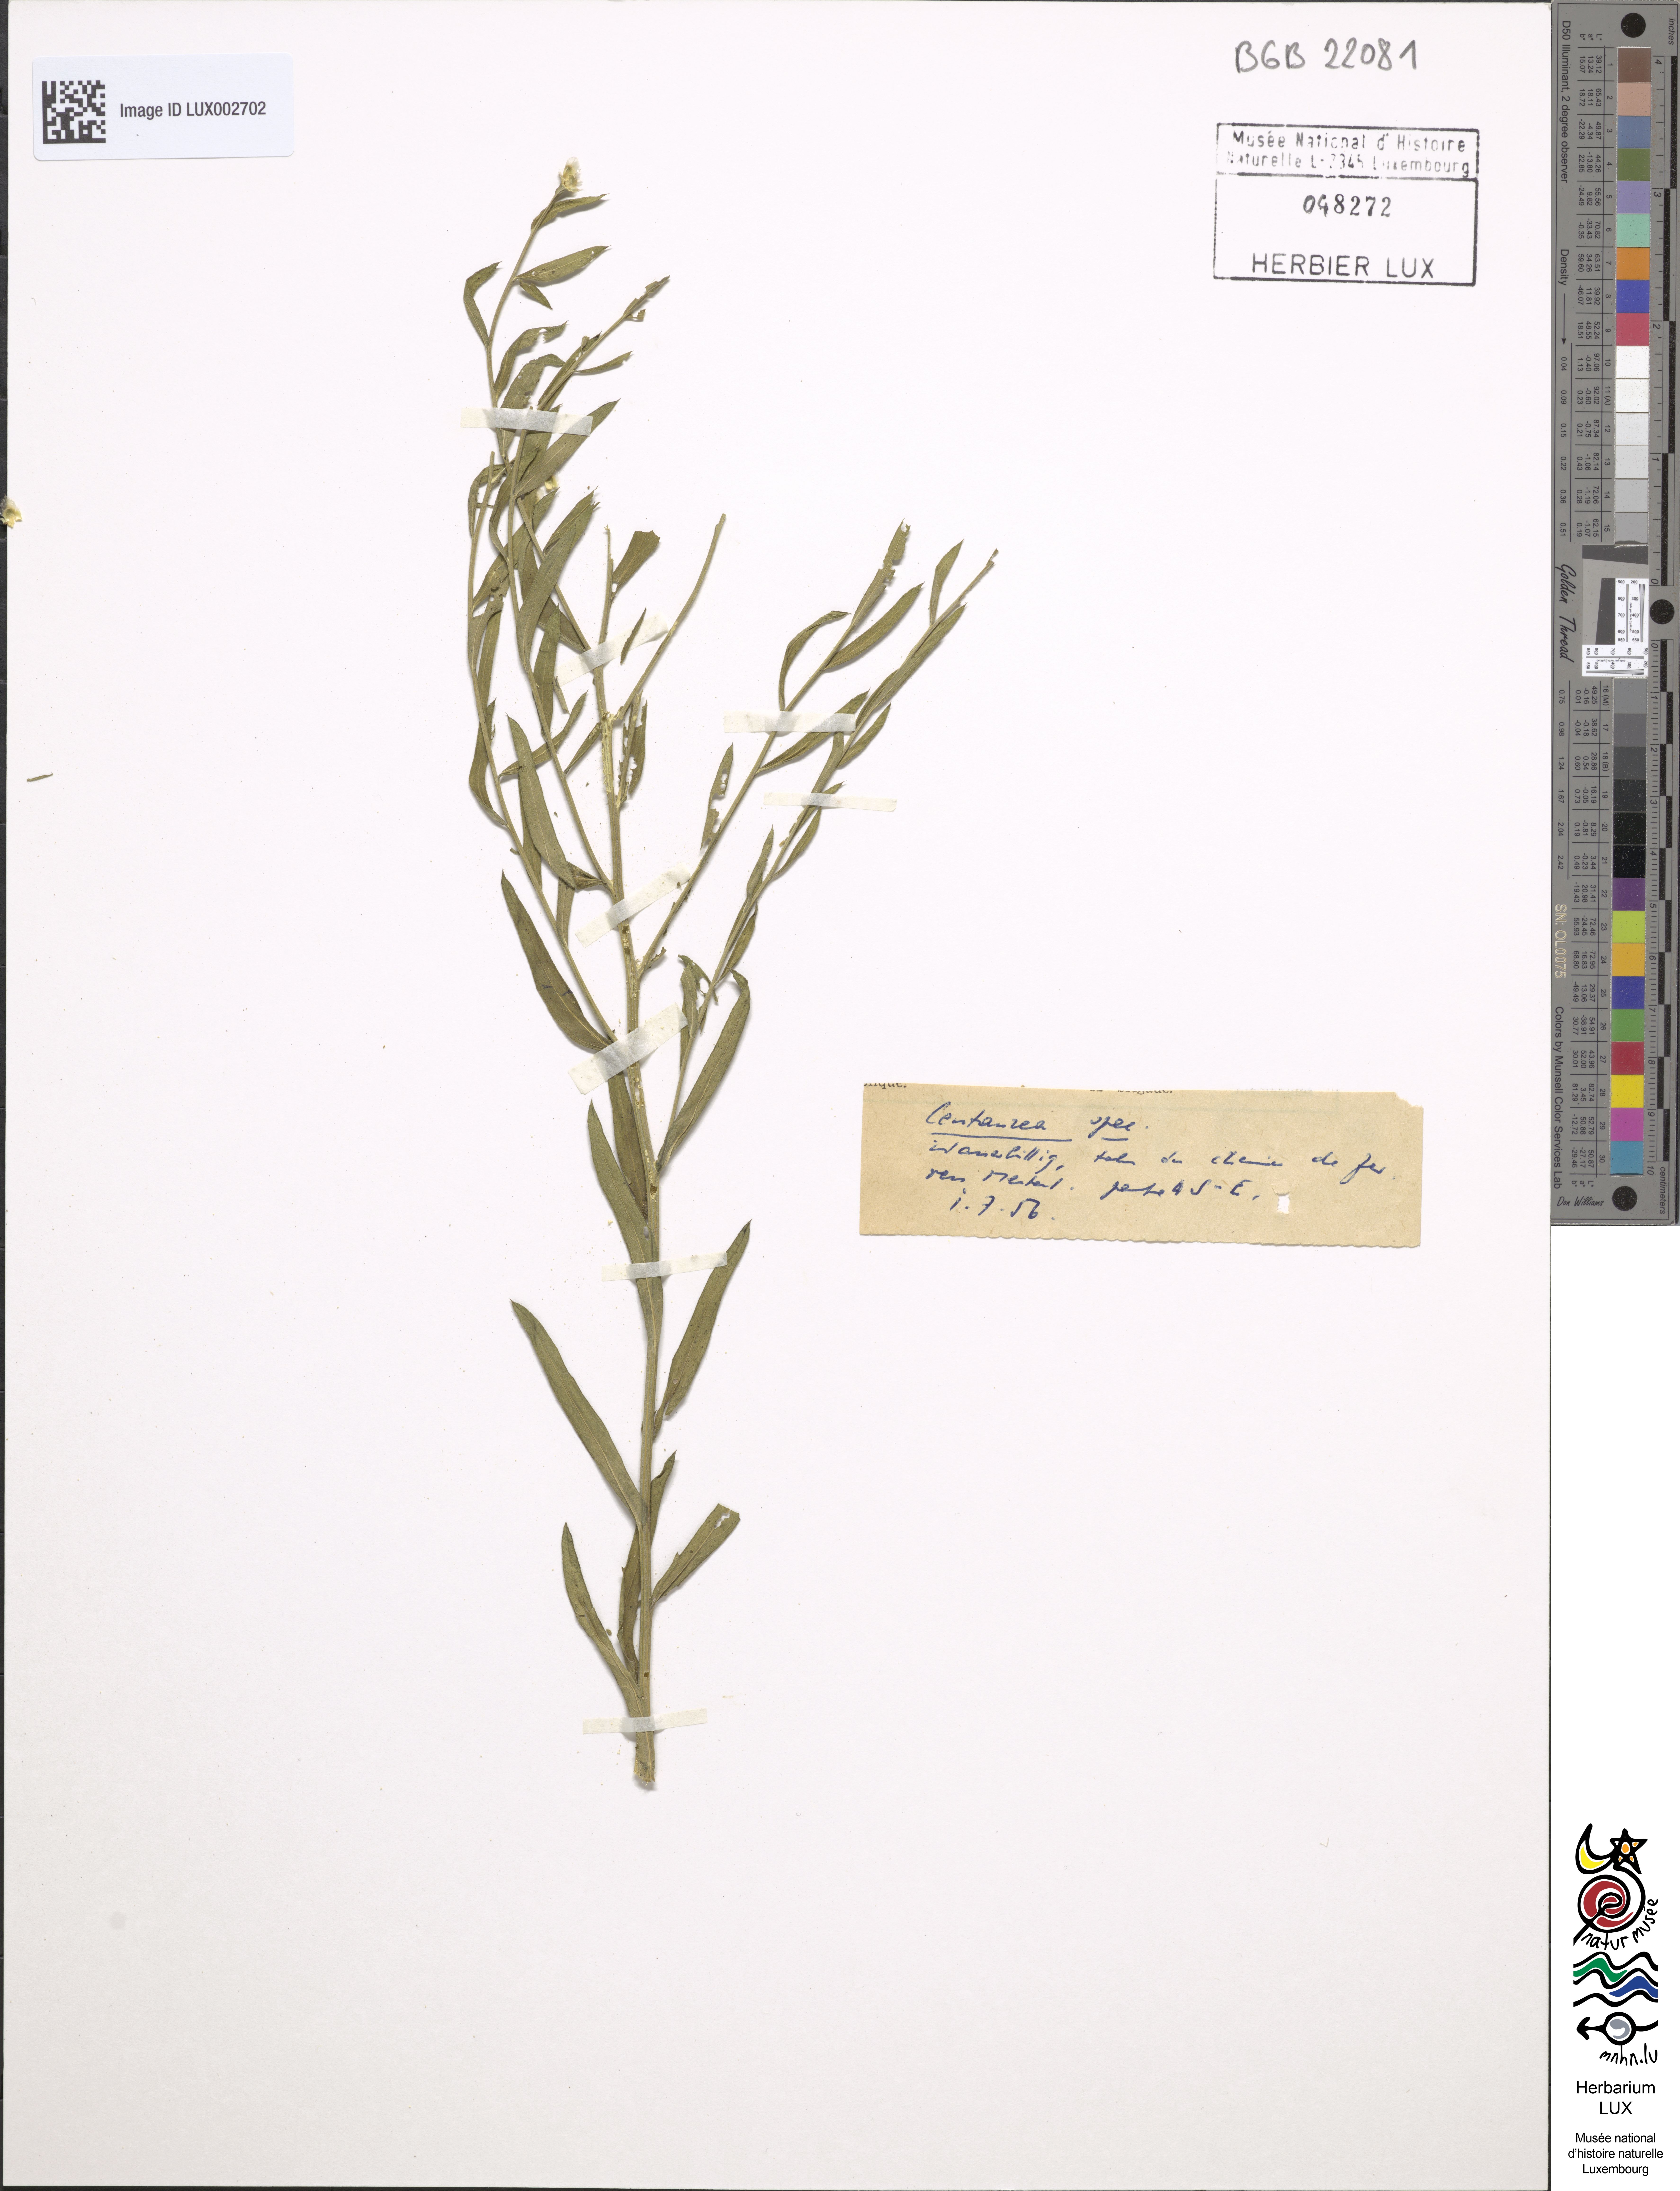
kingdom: Plantae
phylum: Tracheophyta
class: Magnoliopsida
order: Asterales
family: Asteraceae
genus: Centaurea
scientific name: Centaurea
